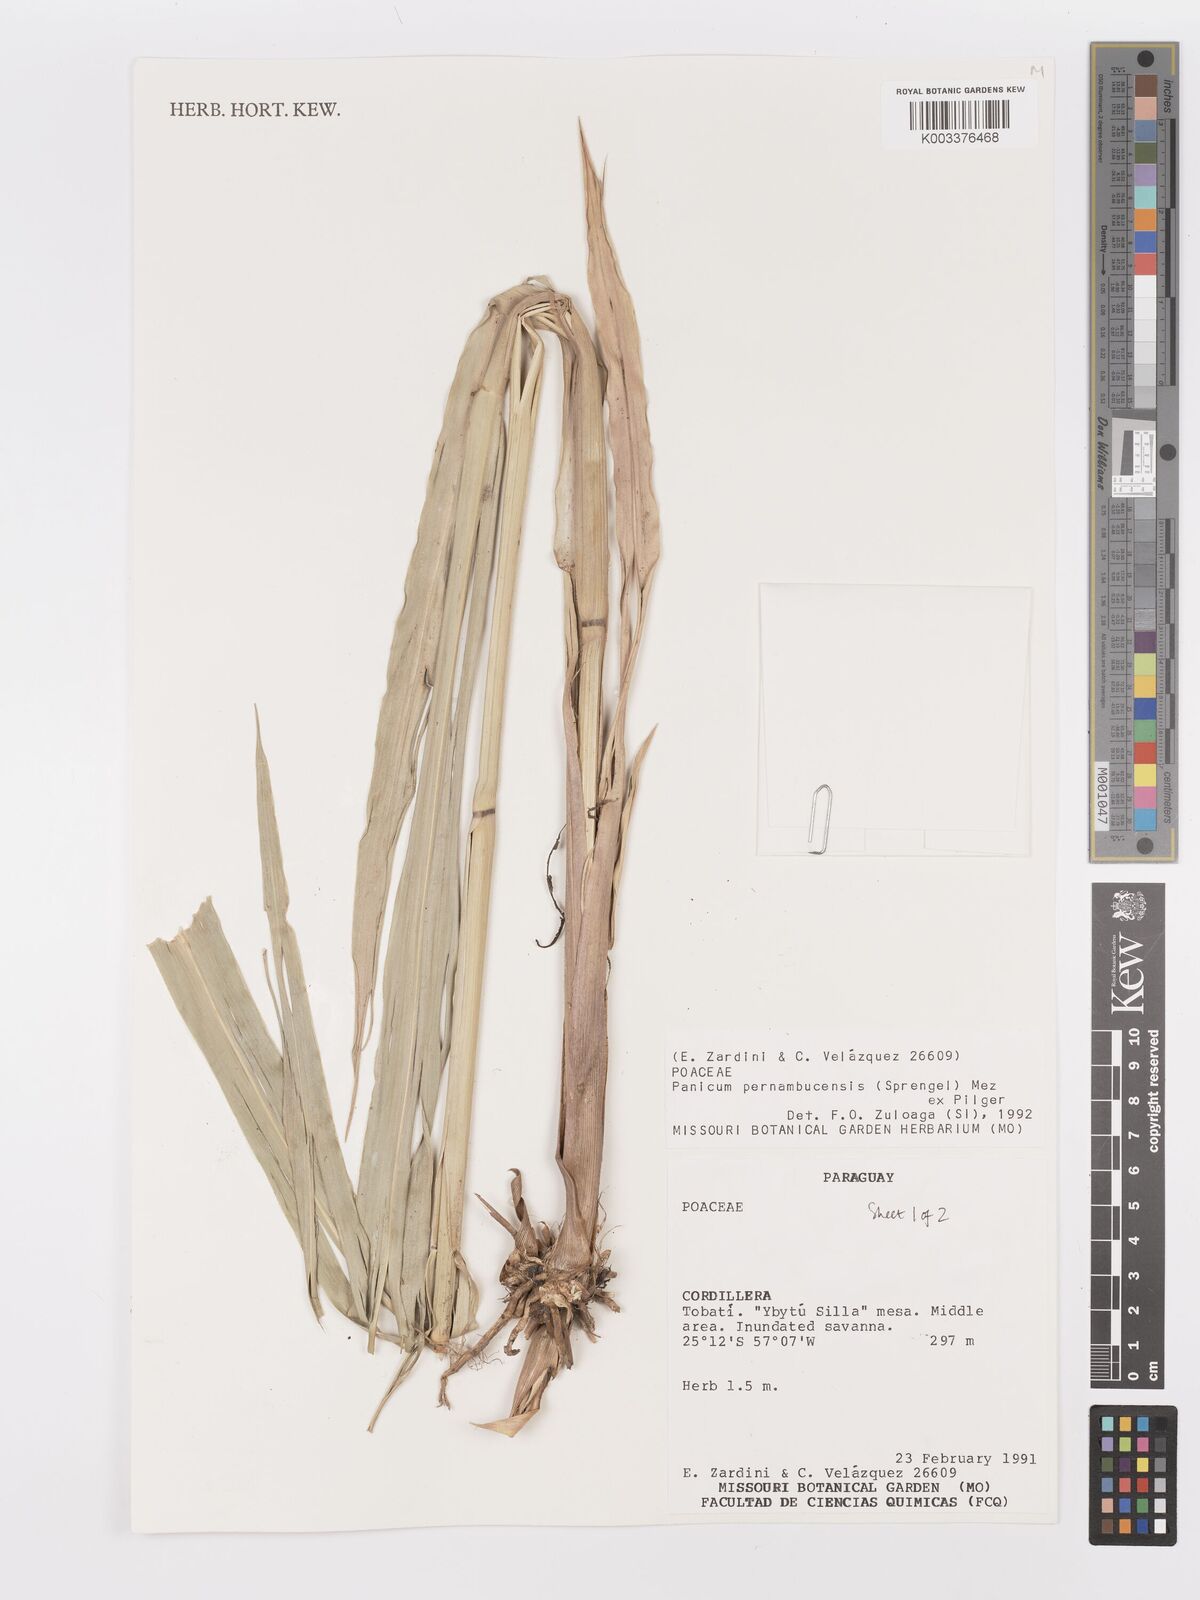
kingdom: Plantae
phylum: Tracheophyta
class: Liliopsida
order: Poales
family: Poaceae
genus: Hymenachne
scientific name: Hymenachne pernambucensis
